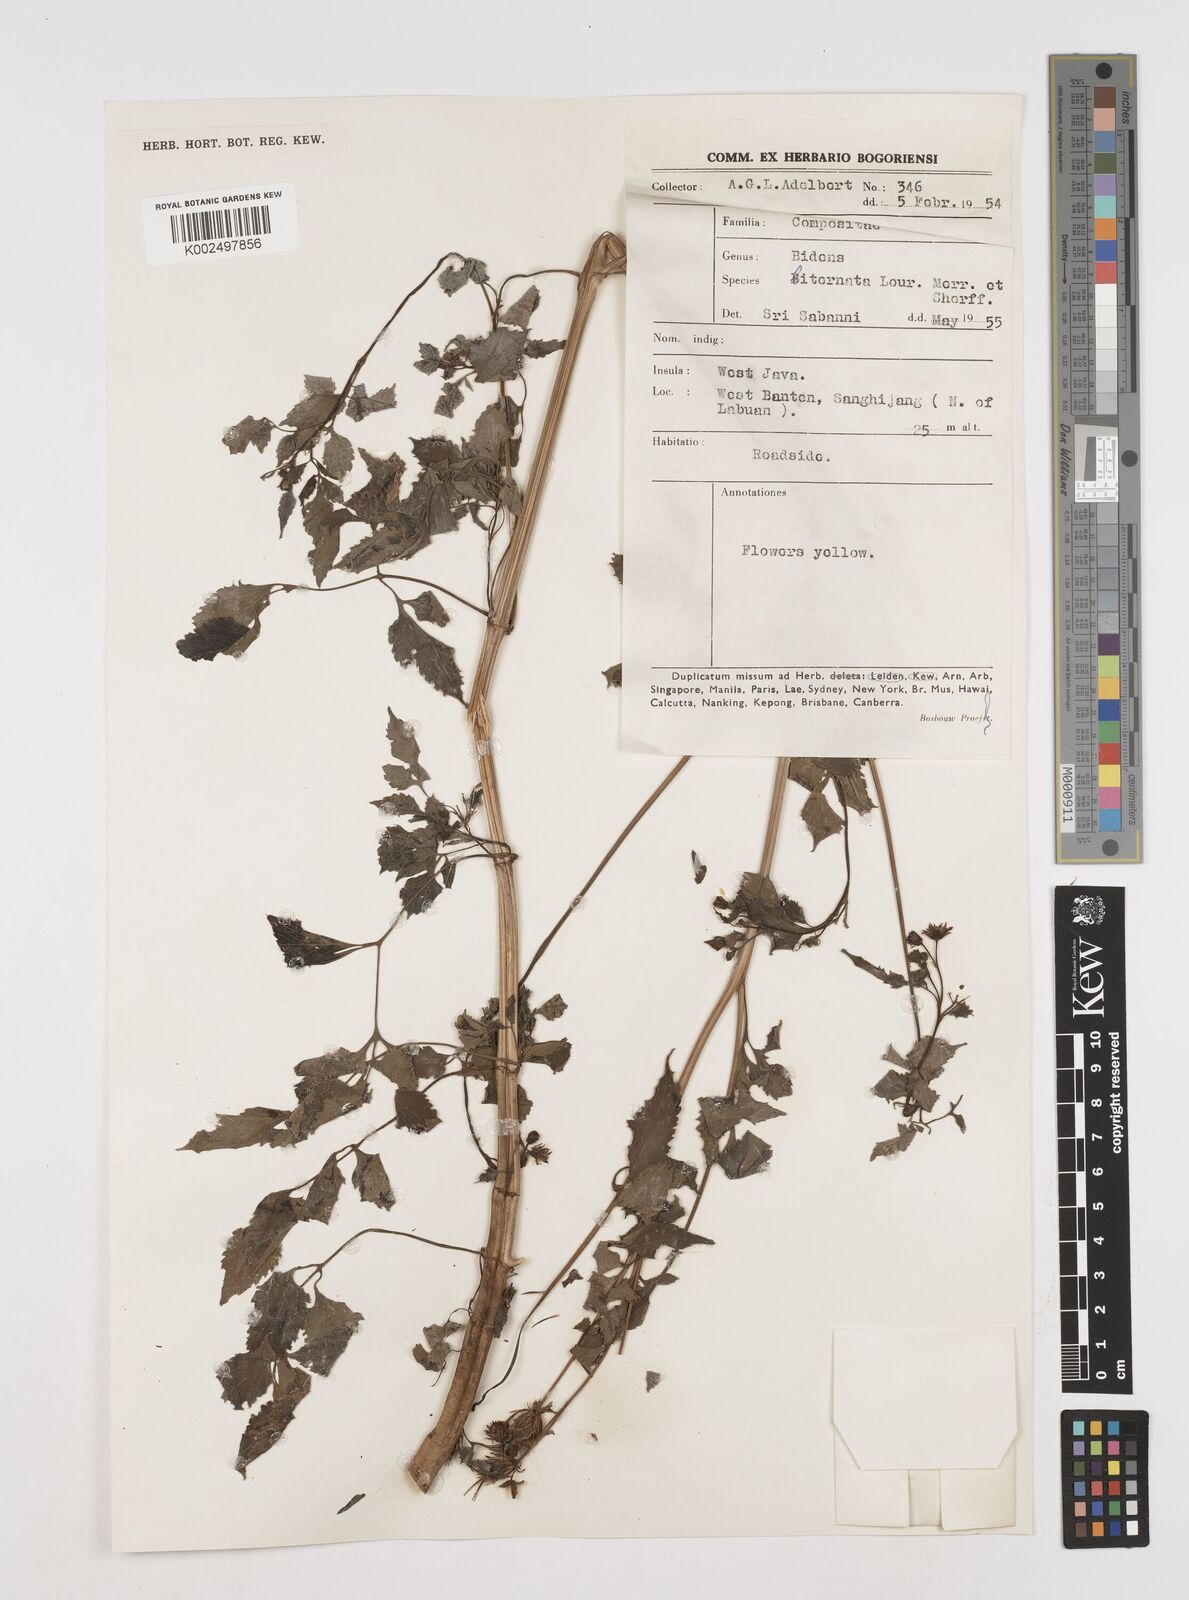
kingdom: Plantae
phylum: Tracheophyta
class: Magnoliopsida
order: Asterales
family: Asteraceae
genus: Bidens
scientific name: Bidens biternata
